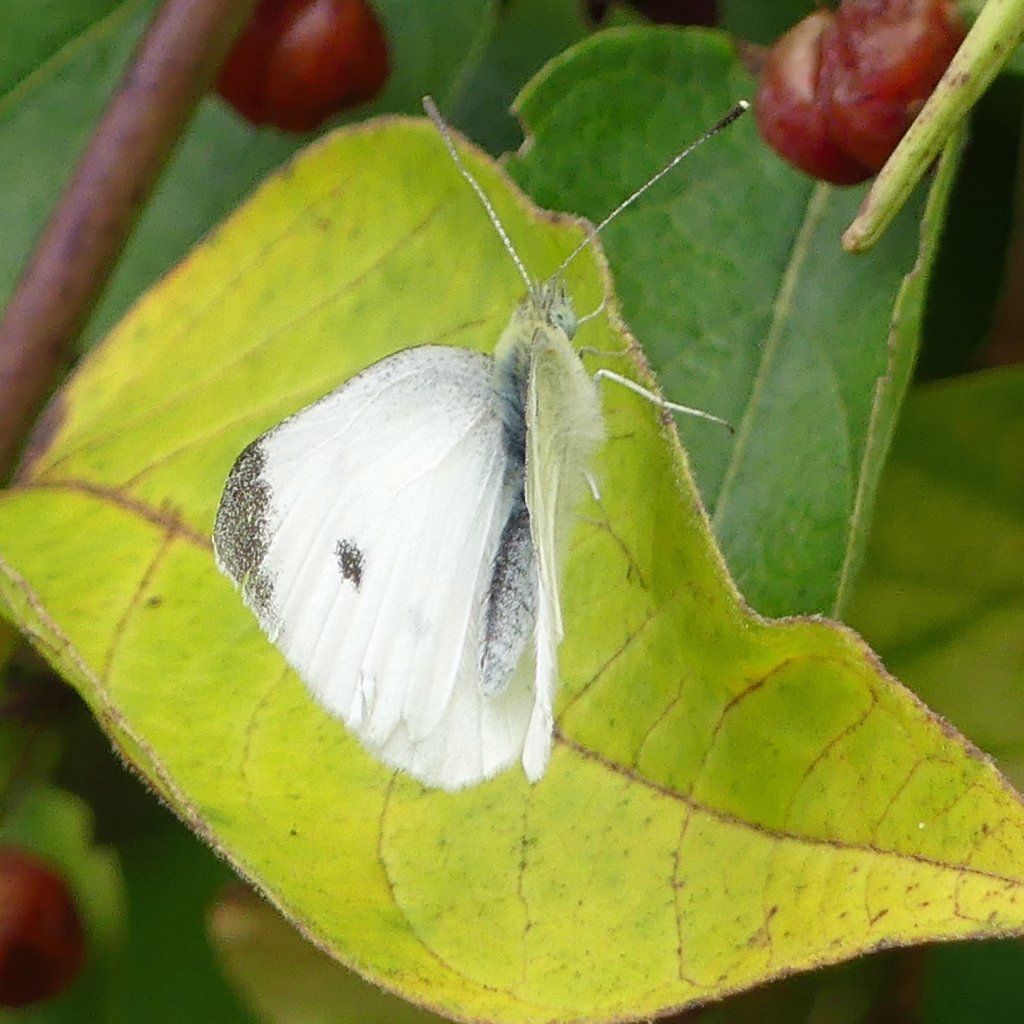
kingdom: Animalia
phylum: Arthropoda
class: Insecta
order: Lepidoptera
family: Pieridae
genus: Pieris
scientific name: Pieris rapae
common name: Cabbage White
